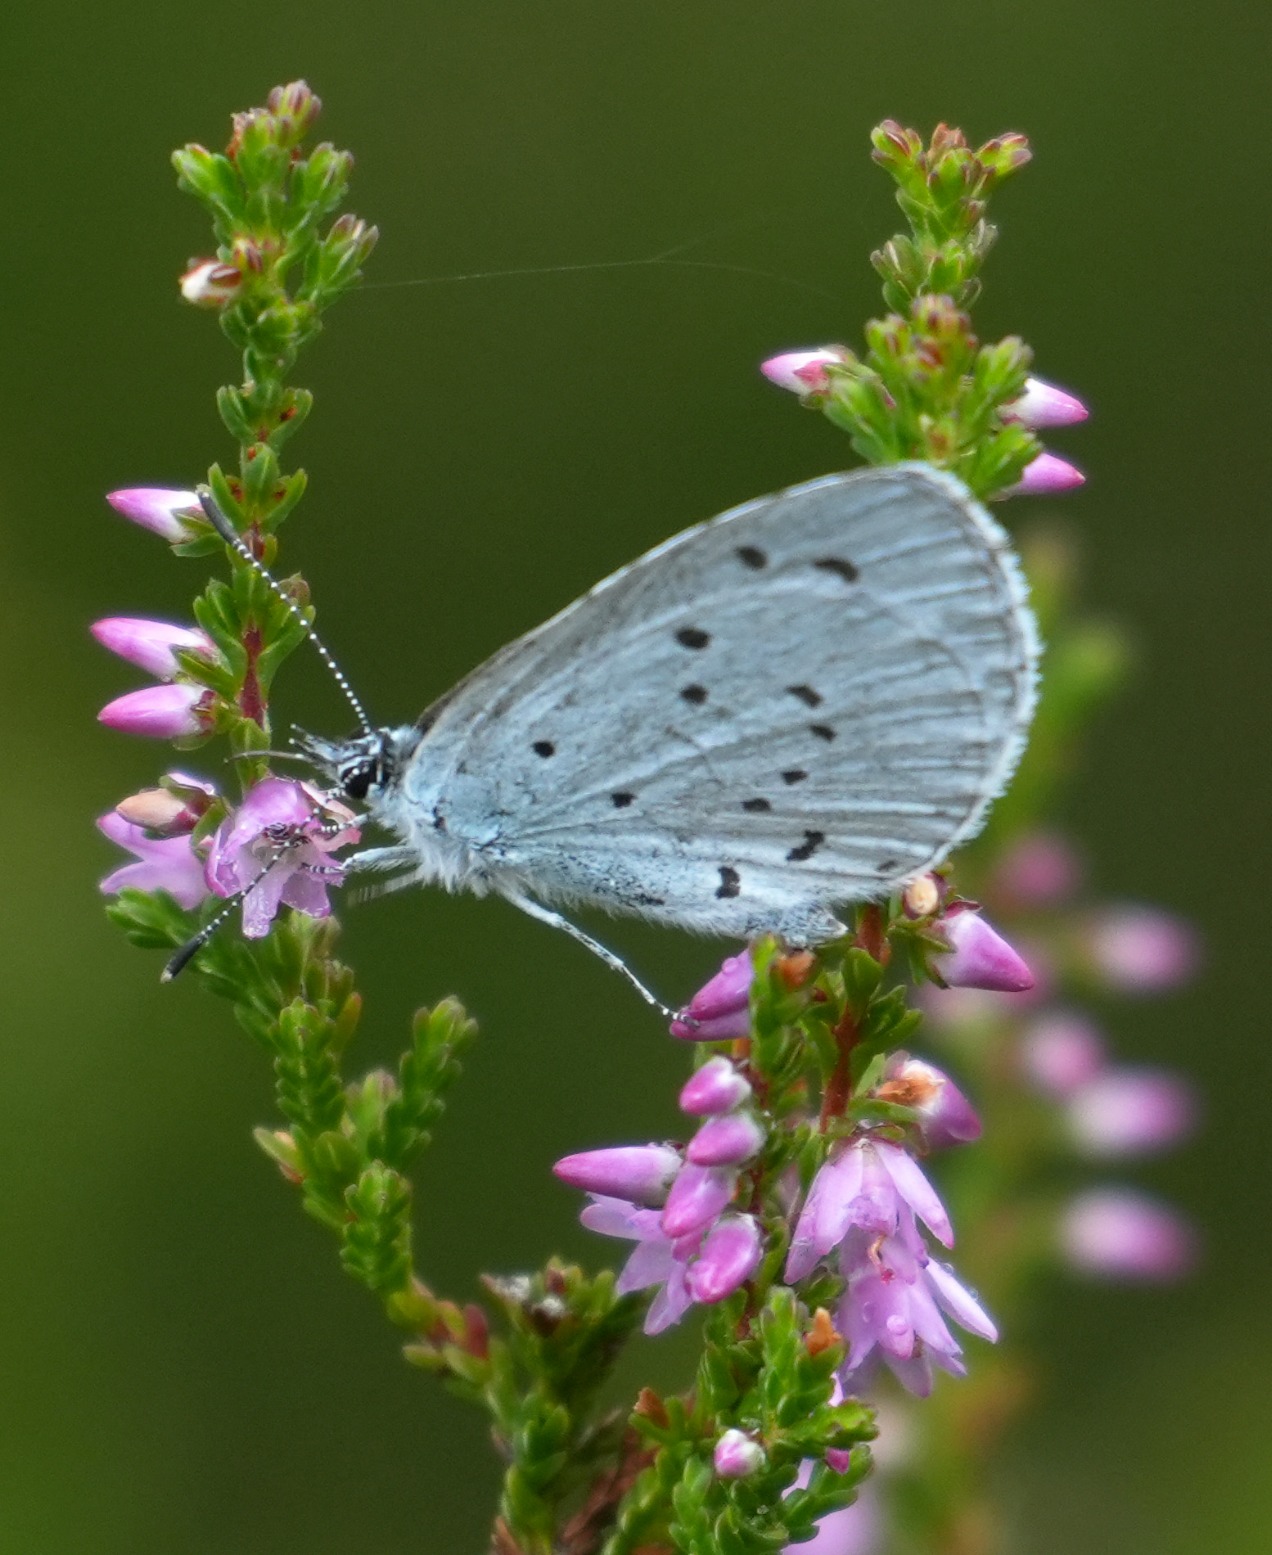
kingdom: Animalia
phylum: Arthropoda
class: Insecta
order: Lepidoptera
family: Lycaenidae
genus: Celastrina
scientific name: Celastrina argiolus
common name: Skovblåfugl
